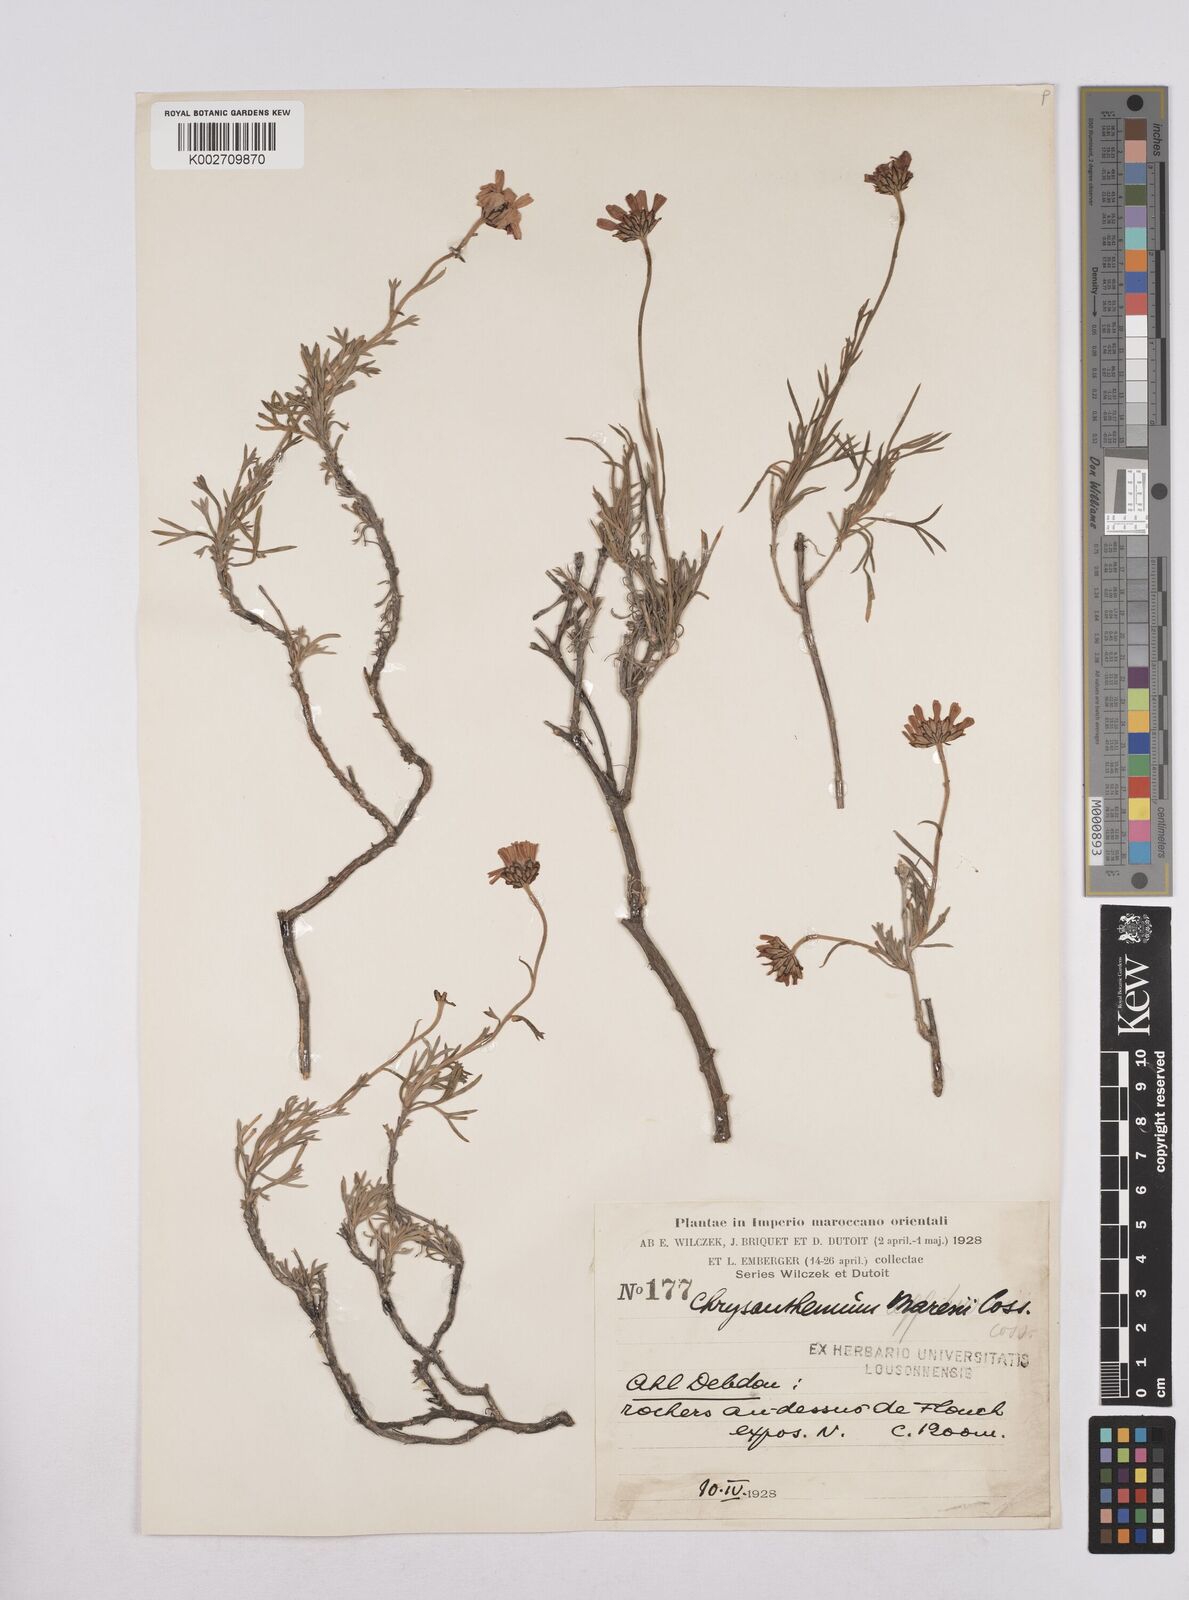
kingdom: Plantae
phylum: Tracheophyta
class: Magnoliopsida
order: Asterales
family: Asteraceae
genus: Rhodanthemum
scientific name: Rhodanthemum maresii
